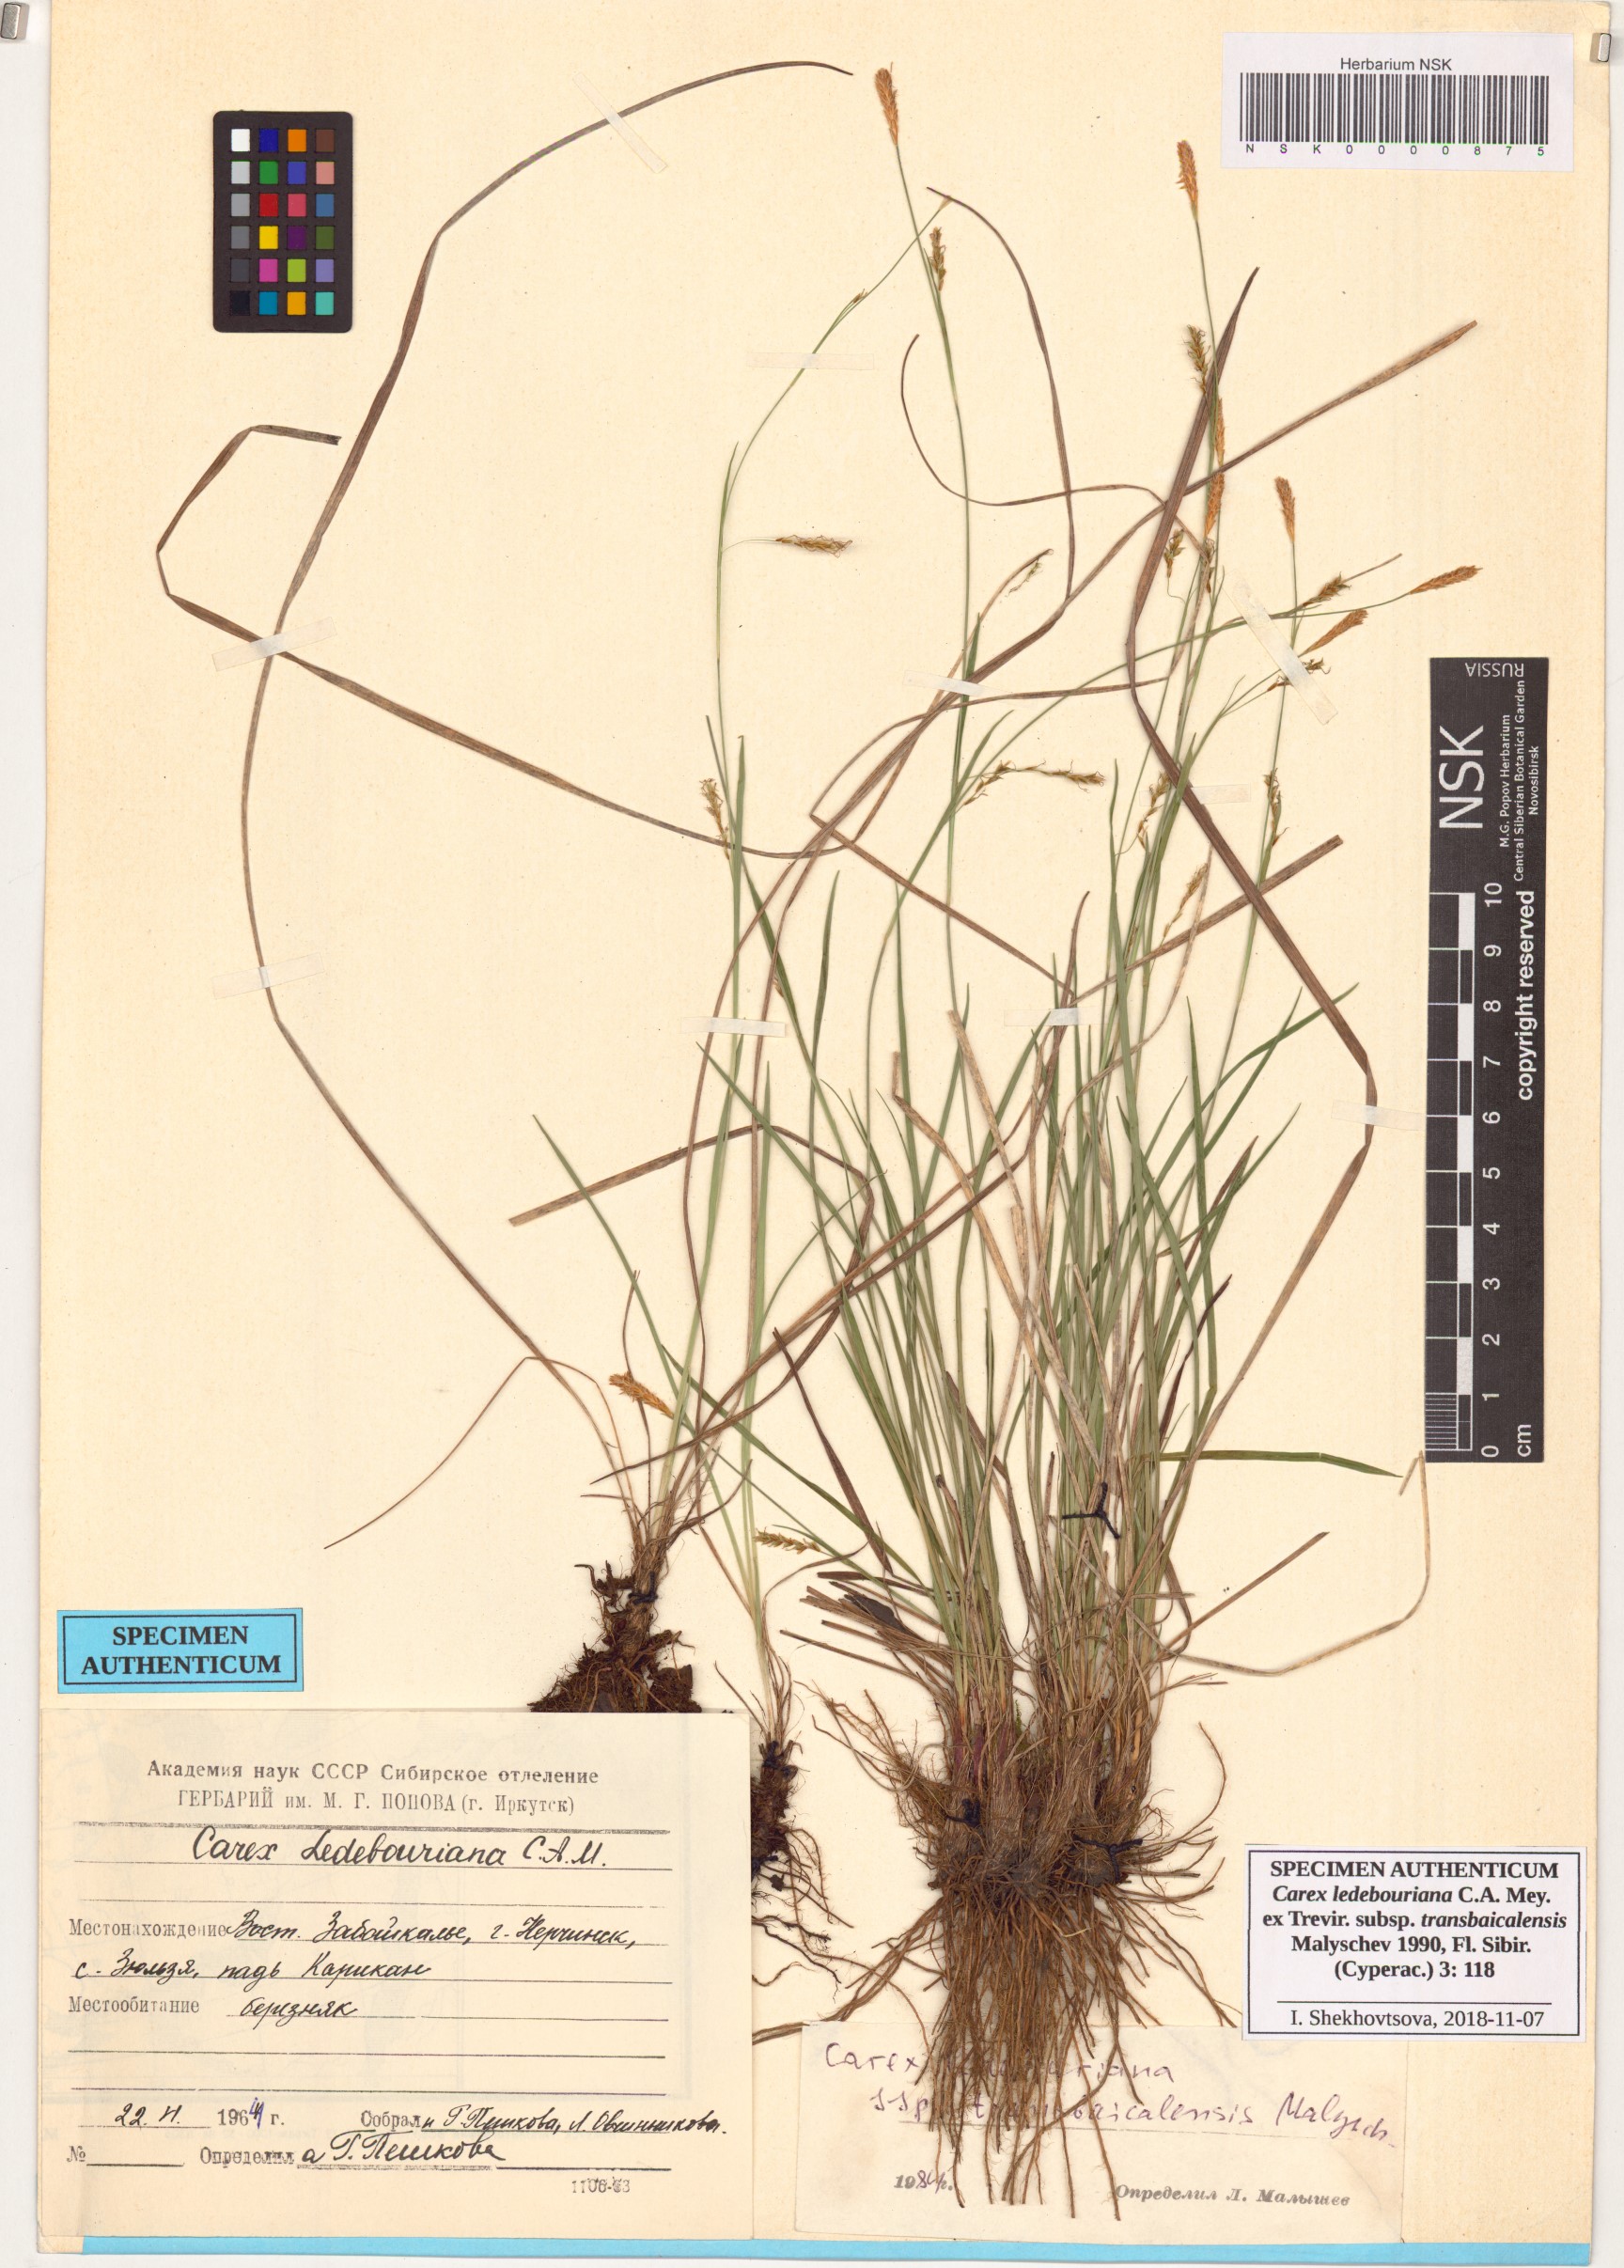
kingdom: Plantae
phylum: Tracheophyta
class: Liliopsida
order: Poales
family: Cyperaceae
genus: Carex
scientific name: Carex ledebouriana
